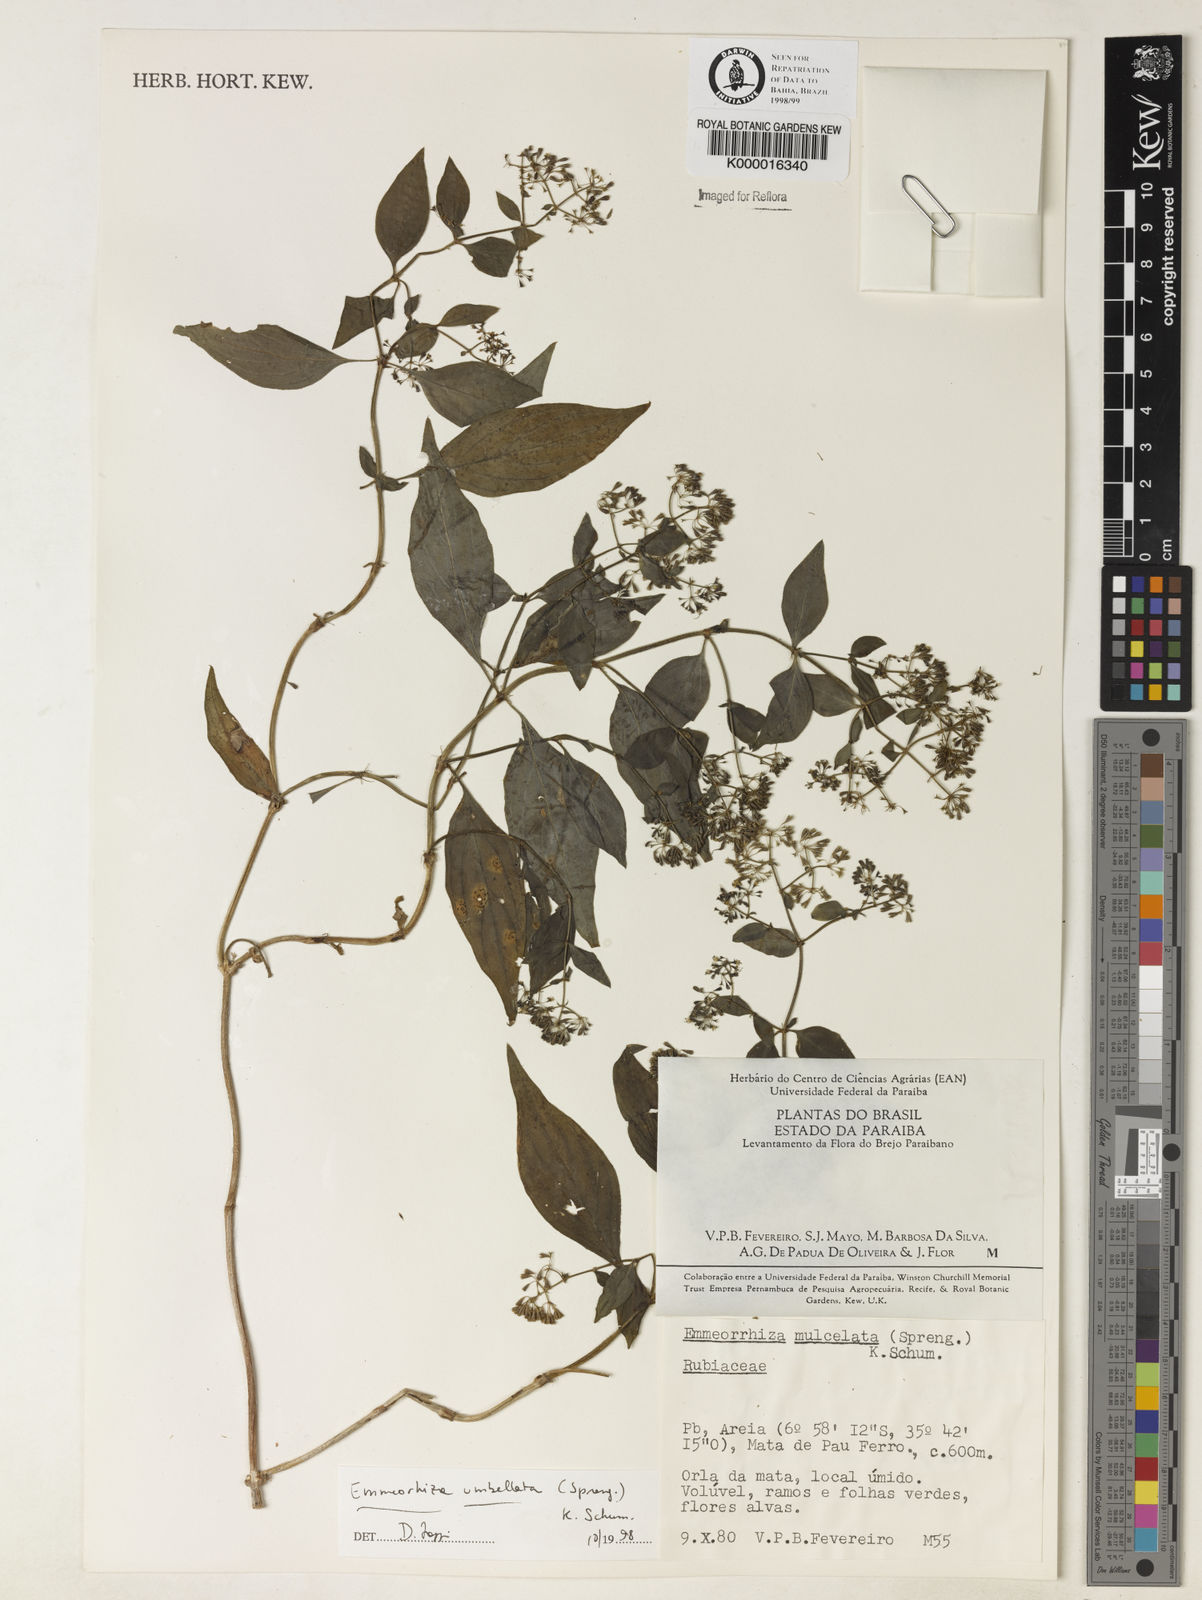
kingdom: Plantae
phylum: Tracheophyta
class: Magnoliopsida
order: Gentianales
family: Rubiaceae
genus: Emmeorhiza
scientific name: Emmeorhiza umbellata
